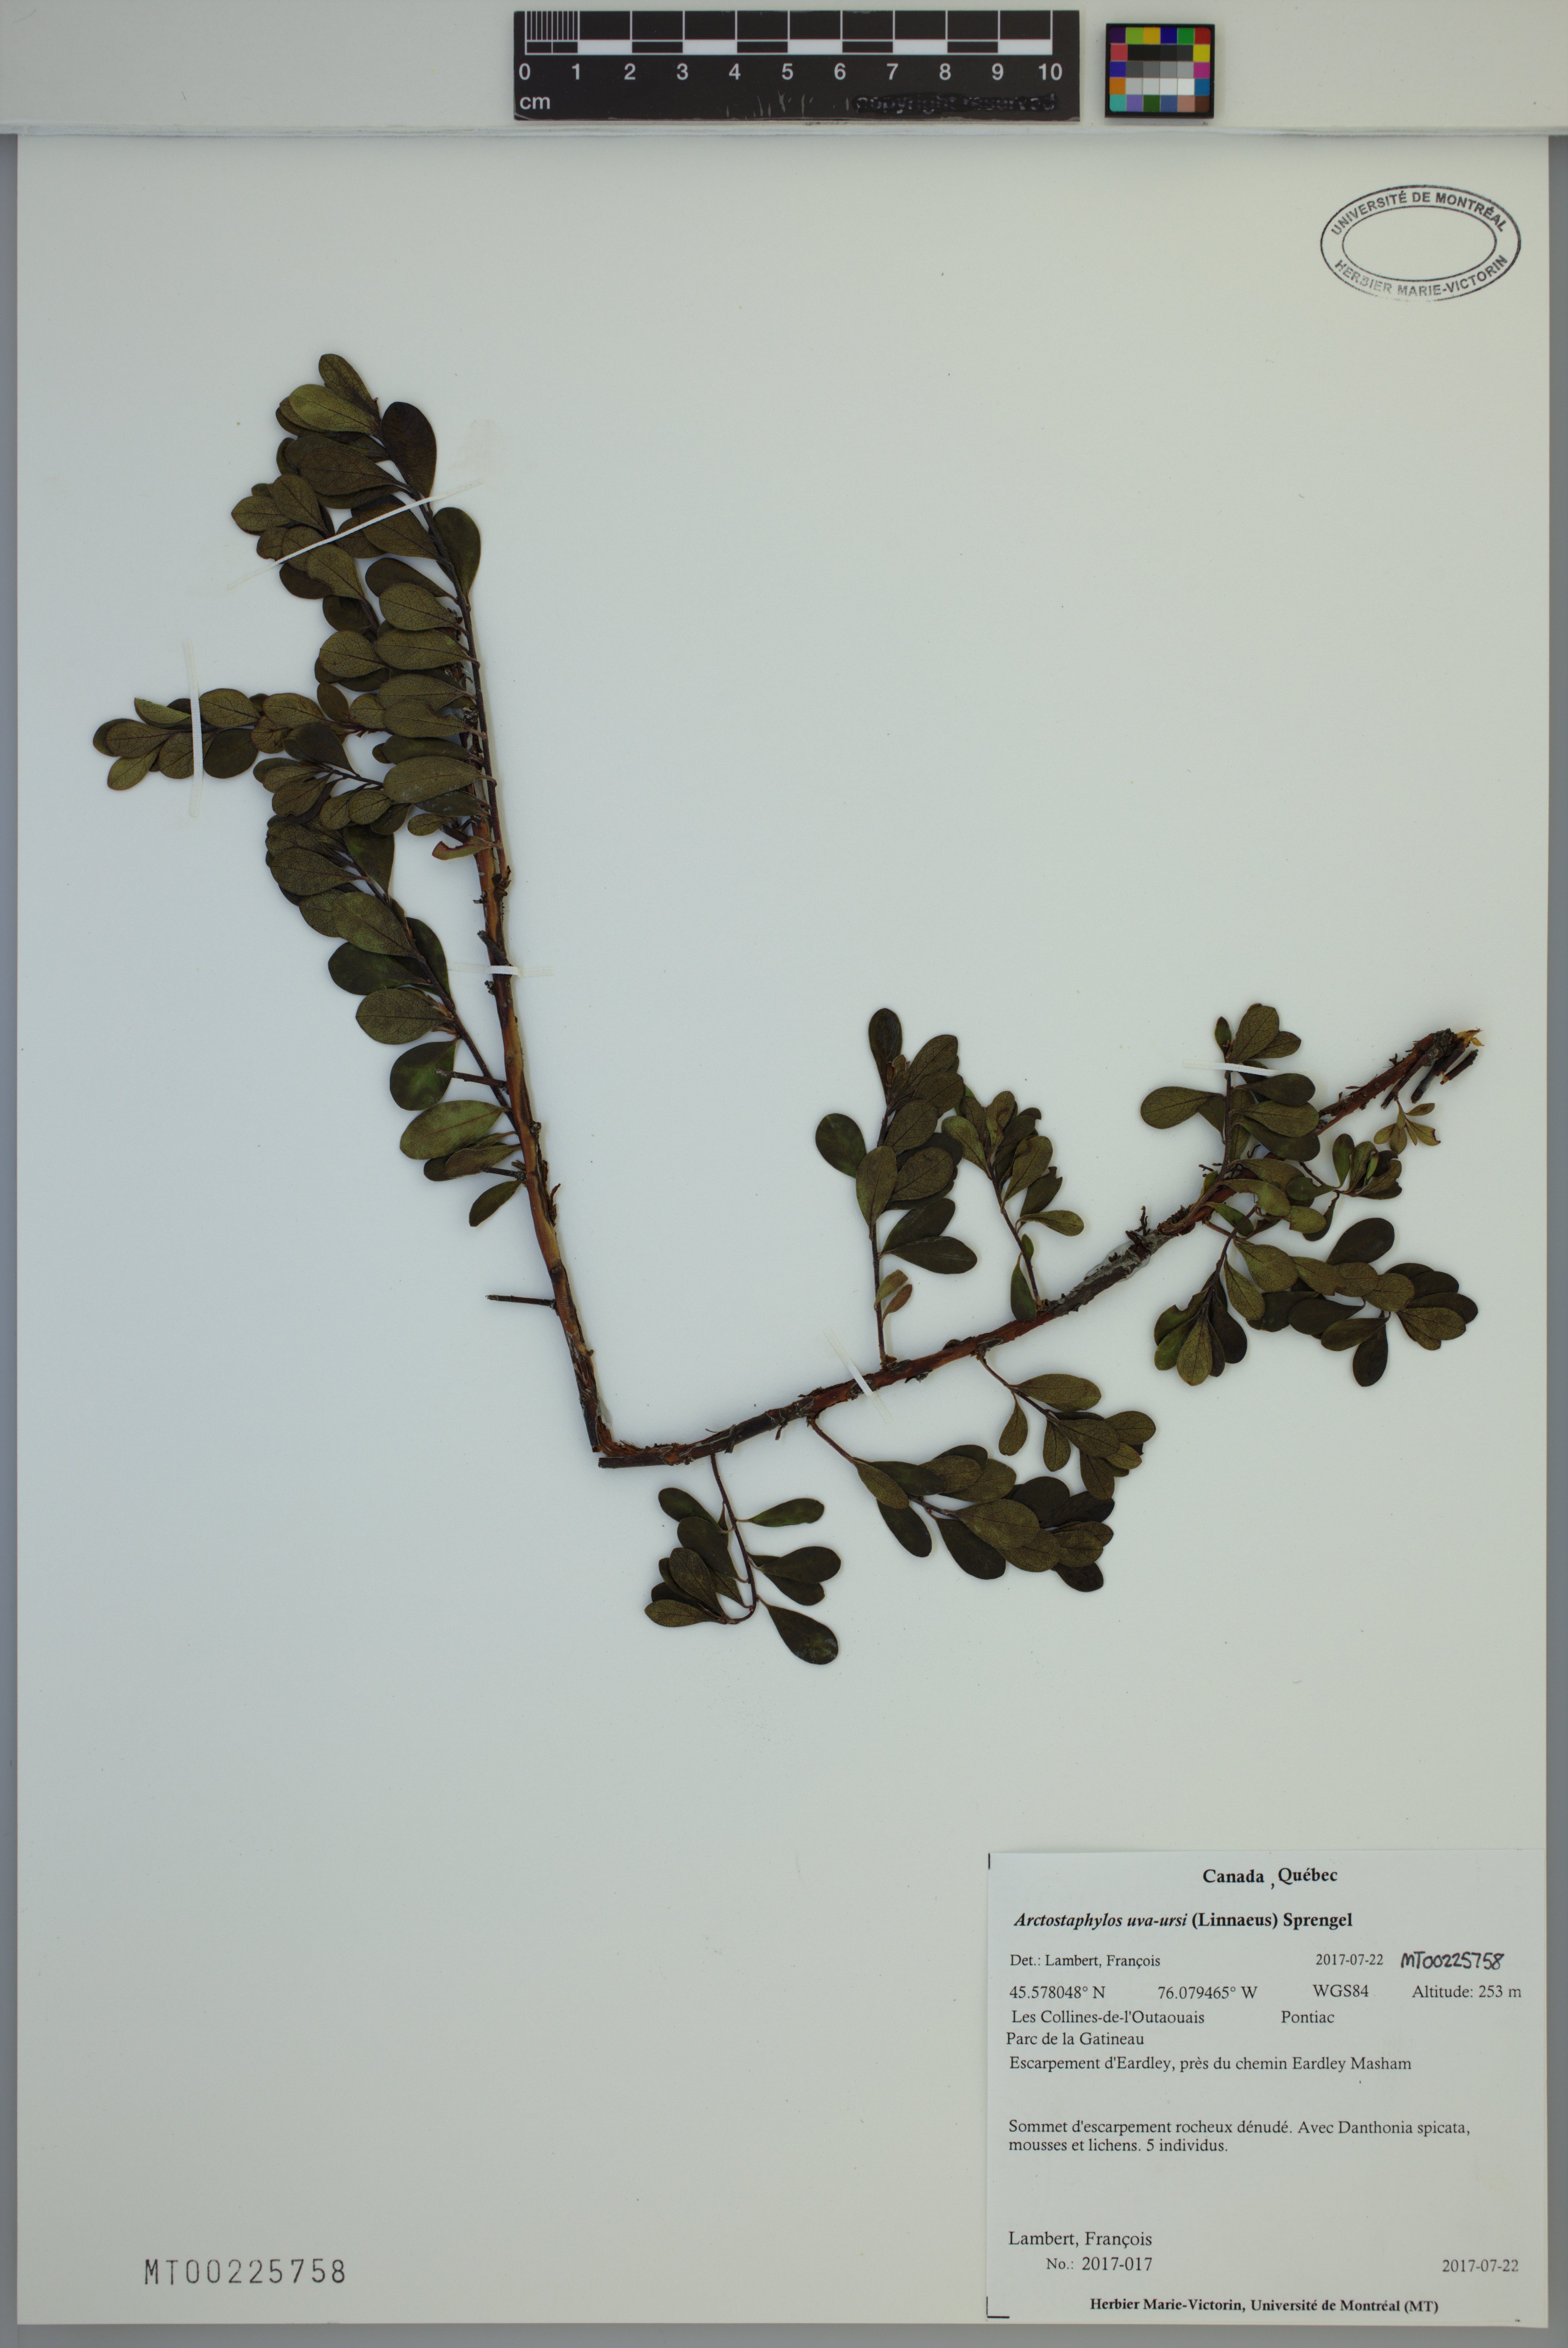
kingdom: Plantae
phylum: Tracheophyta
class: Magnoliopsida
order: Ericales
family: Ericaceae
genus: Arctostaphylos
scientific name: Arctostaphylos uva-ursi
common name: Bearberry
